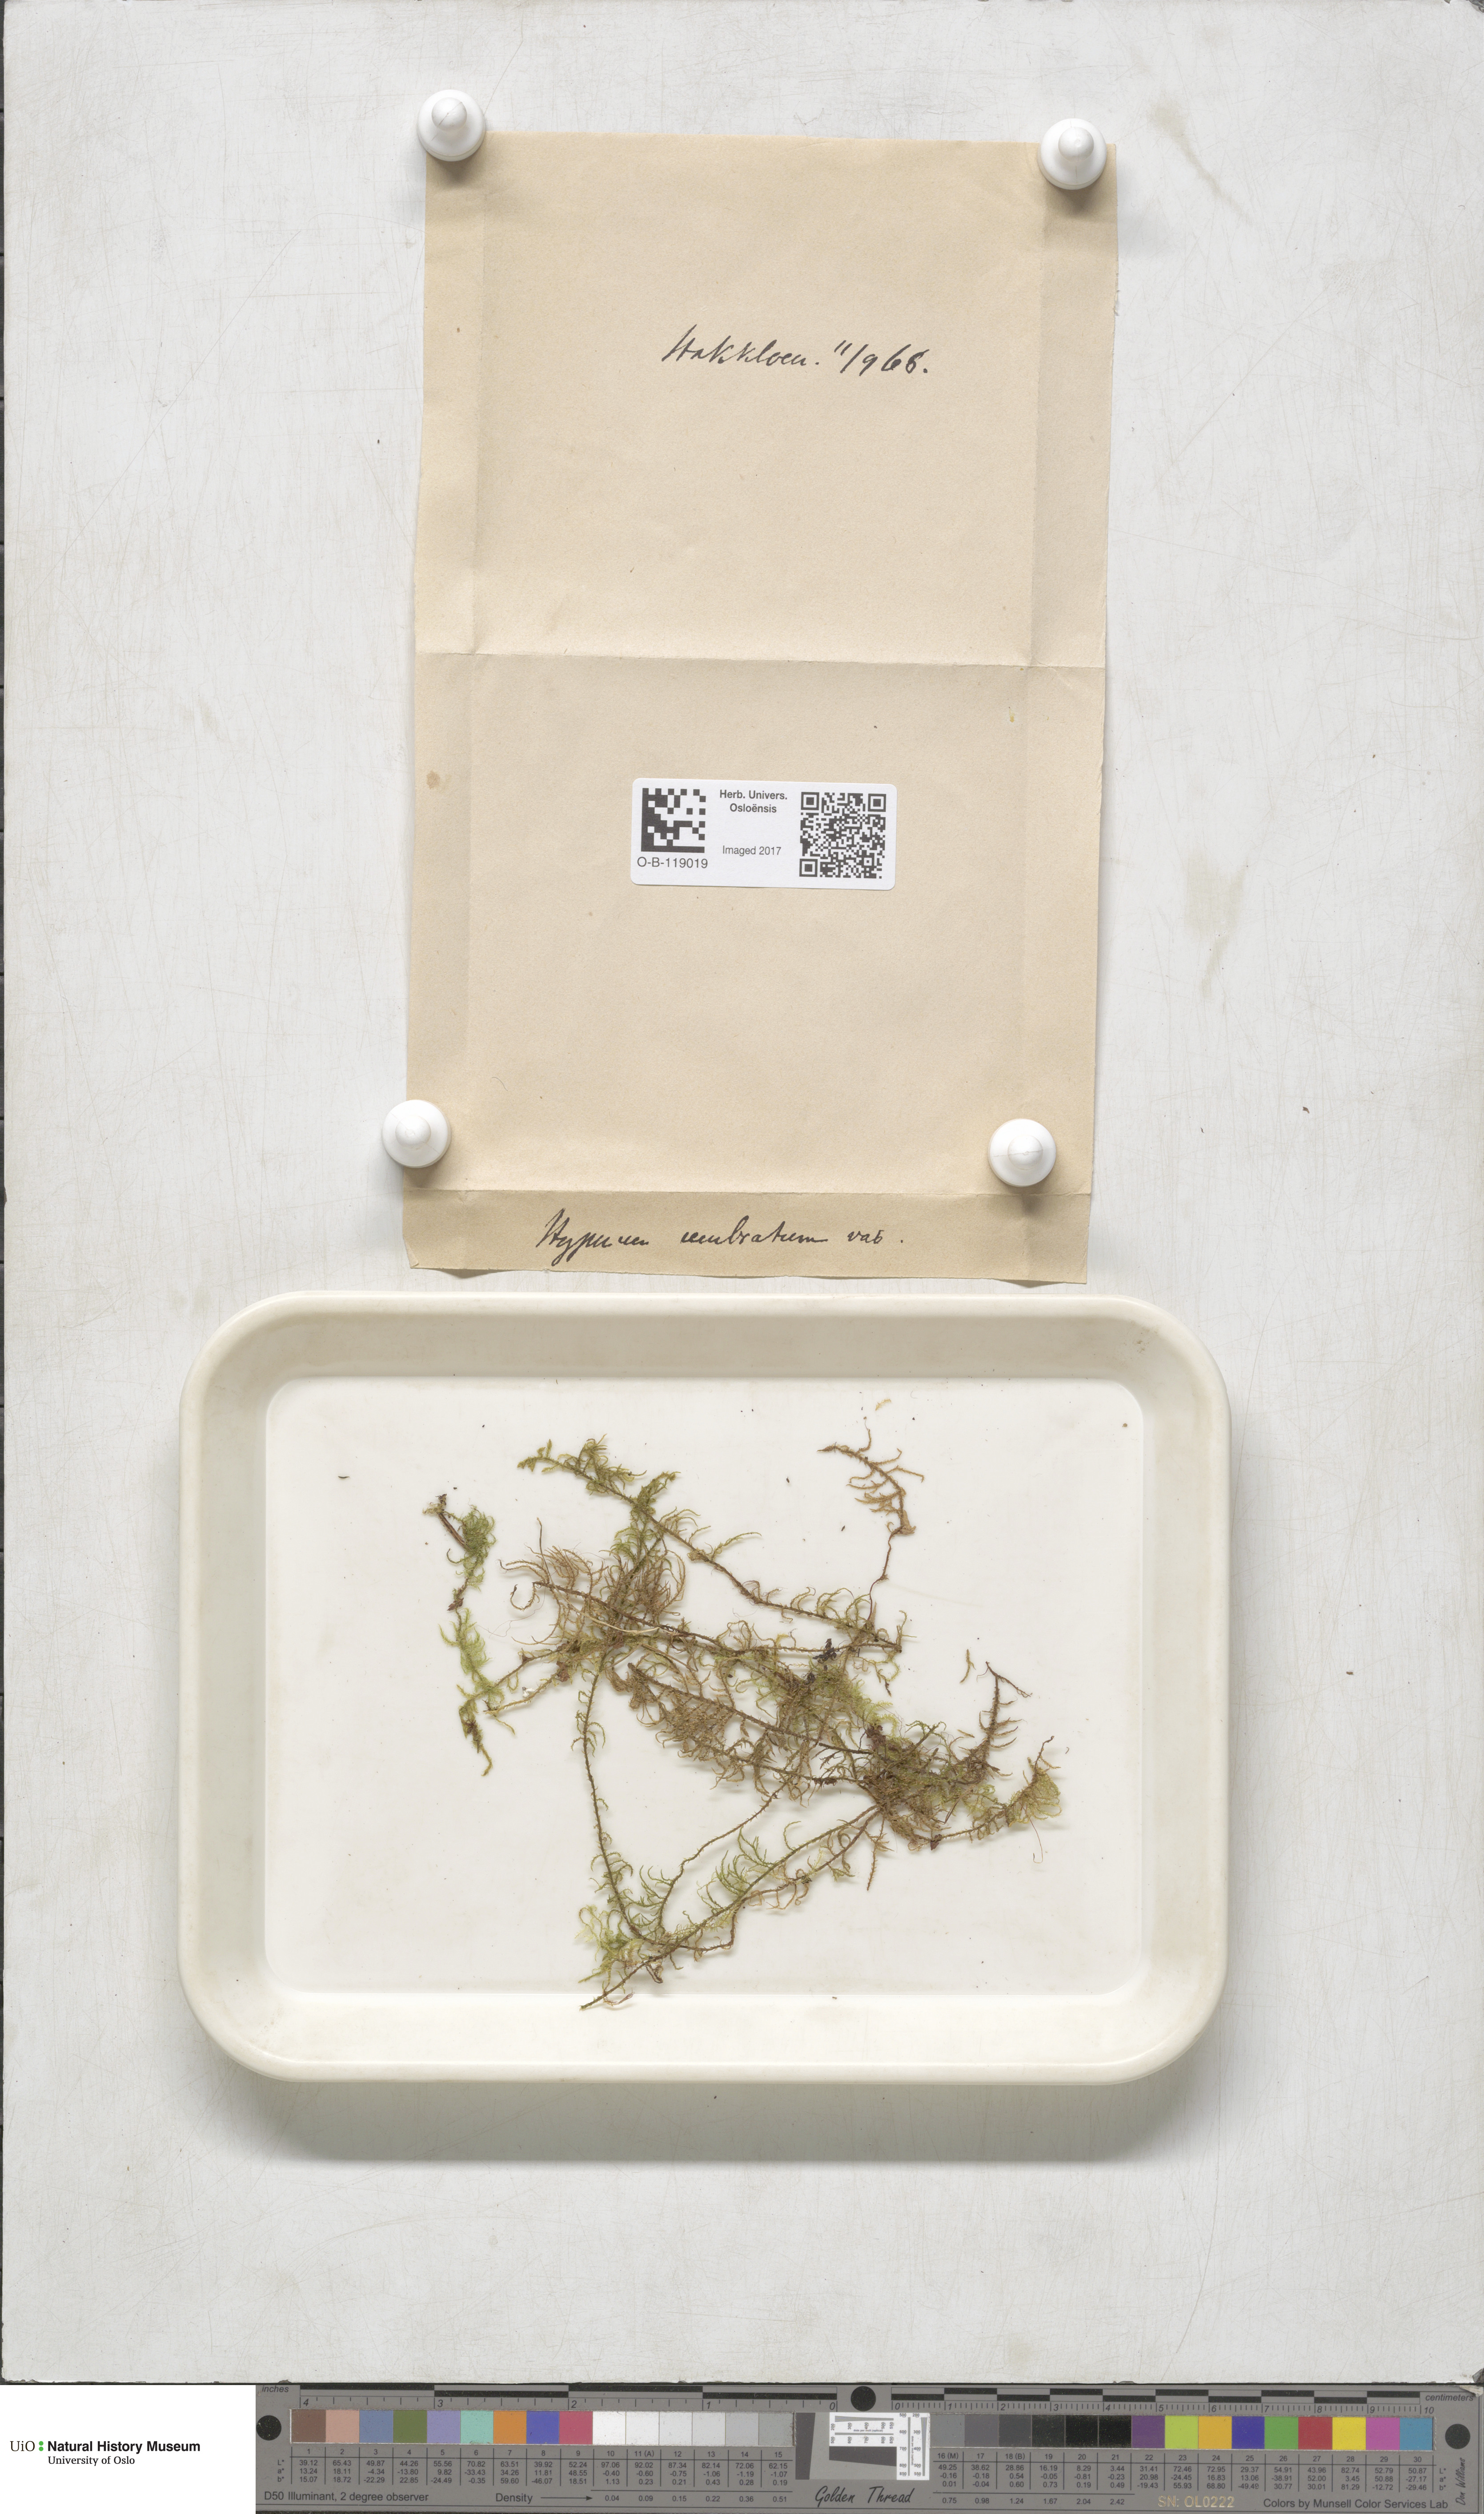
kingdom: Plantae
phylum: Bryophyta
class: Bryopsida
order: Hypnales
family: Hylocomiaceae
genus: Hylocomiastrum
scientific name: Hylocomiastrum umbratum
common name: Shaded woods moss
